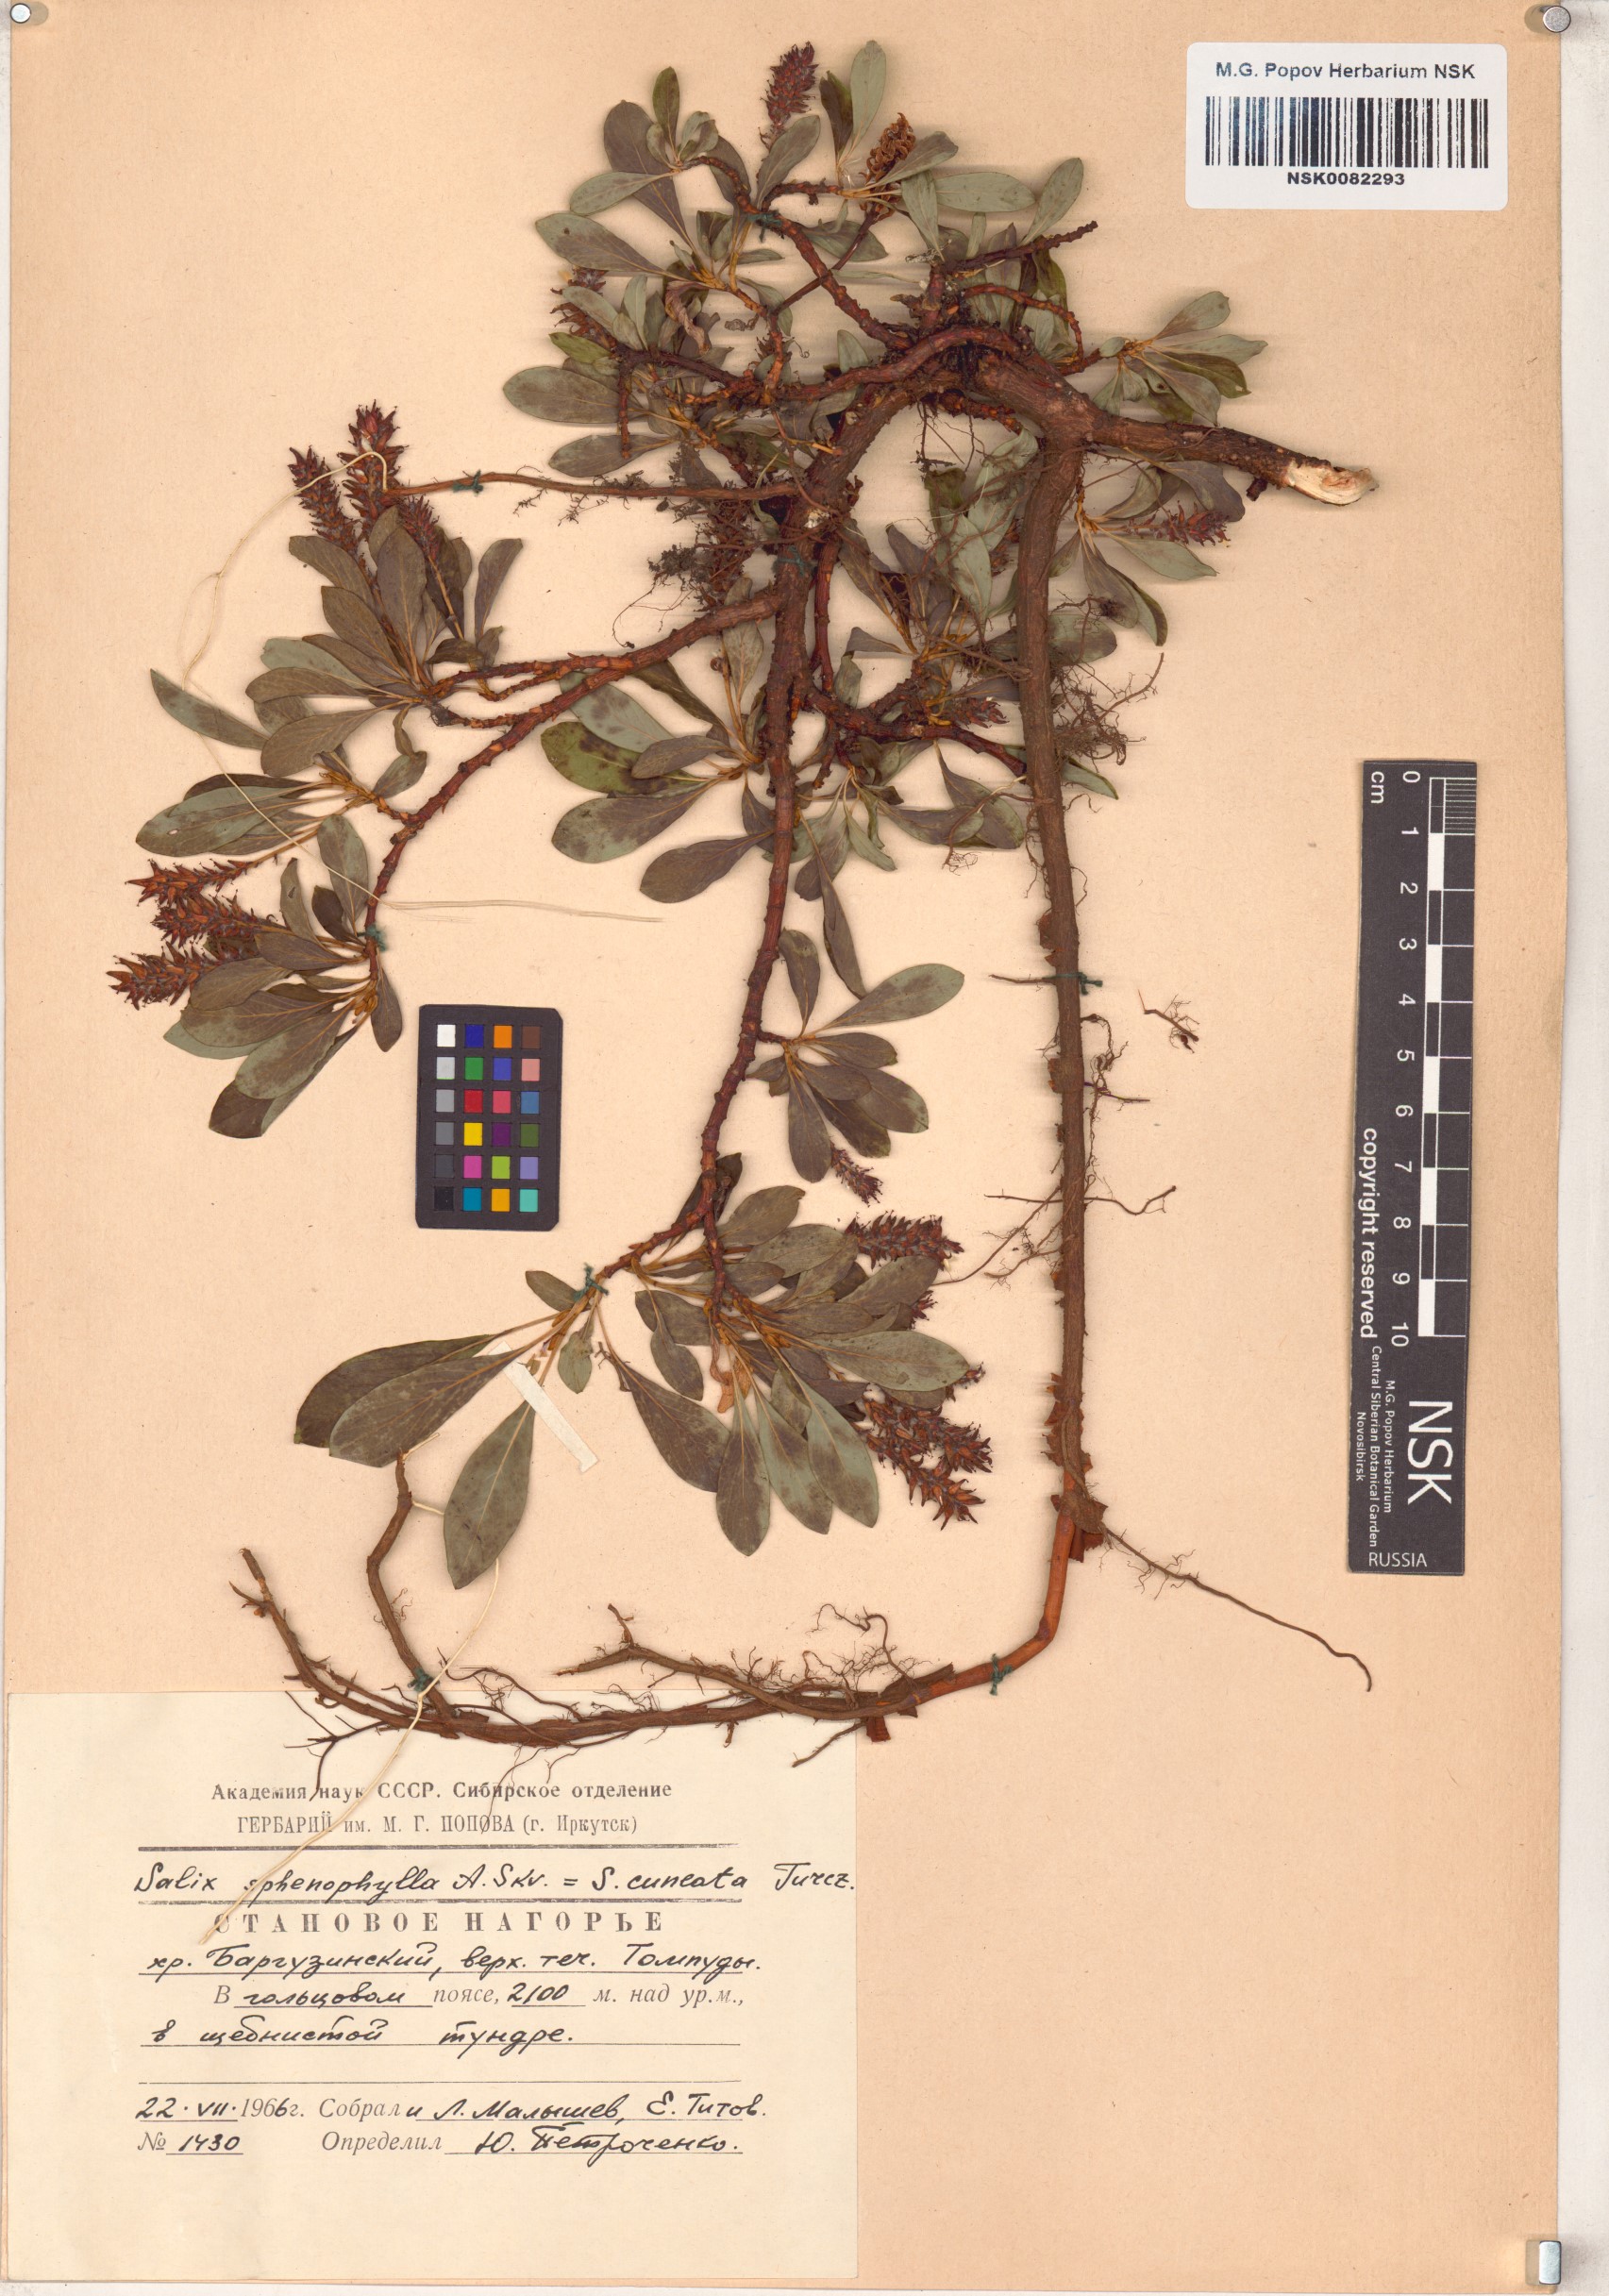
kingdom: Plantae
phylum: Tracheophyta
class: Magnoliopsida
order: Malpighiales
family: Salicaceae
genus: Salix
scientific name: Salix sphenophylla
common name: Wedge-leaved willow
